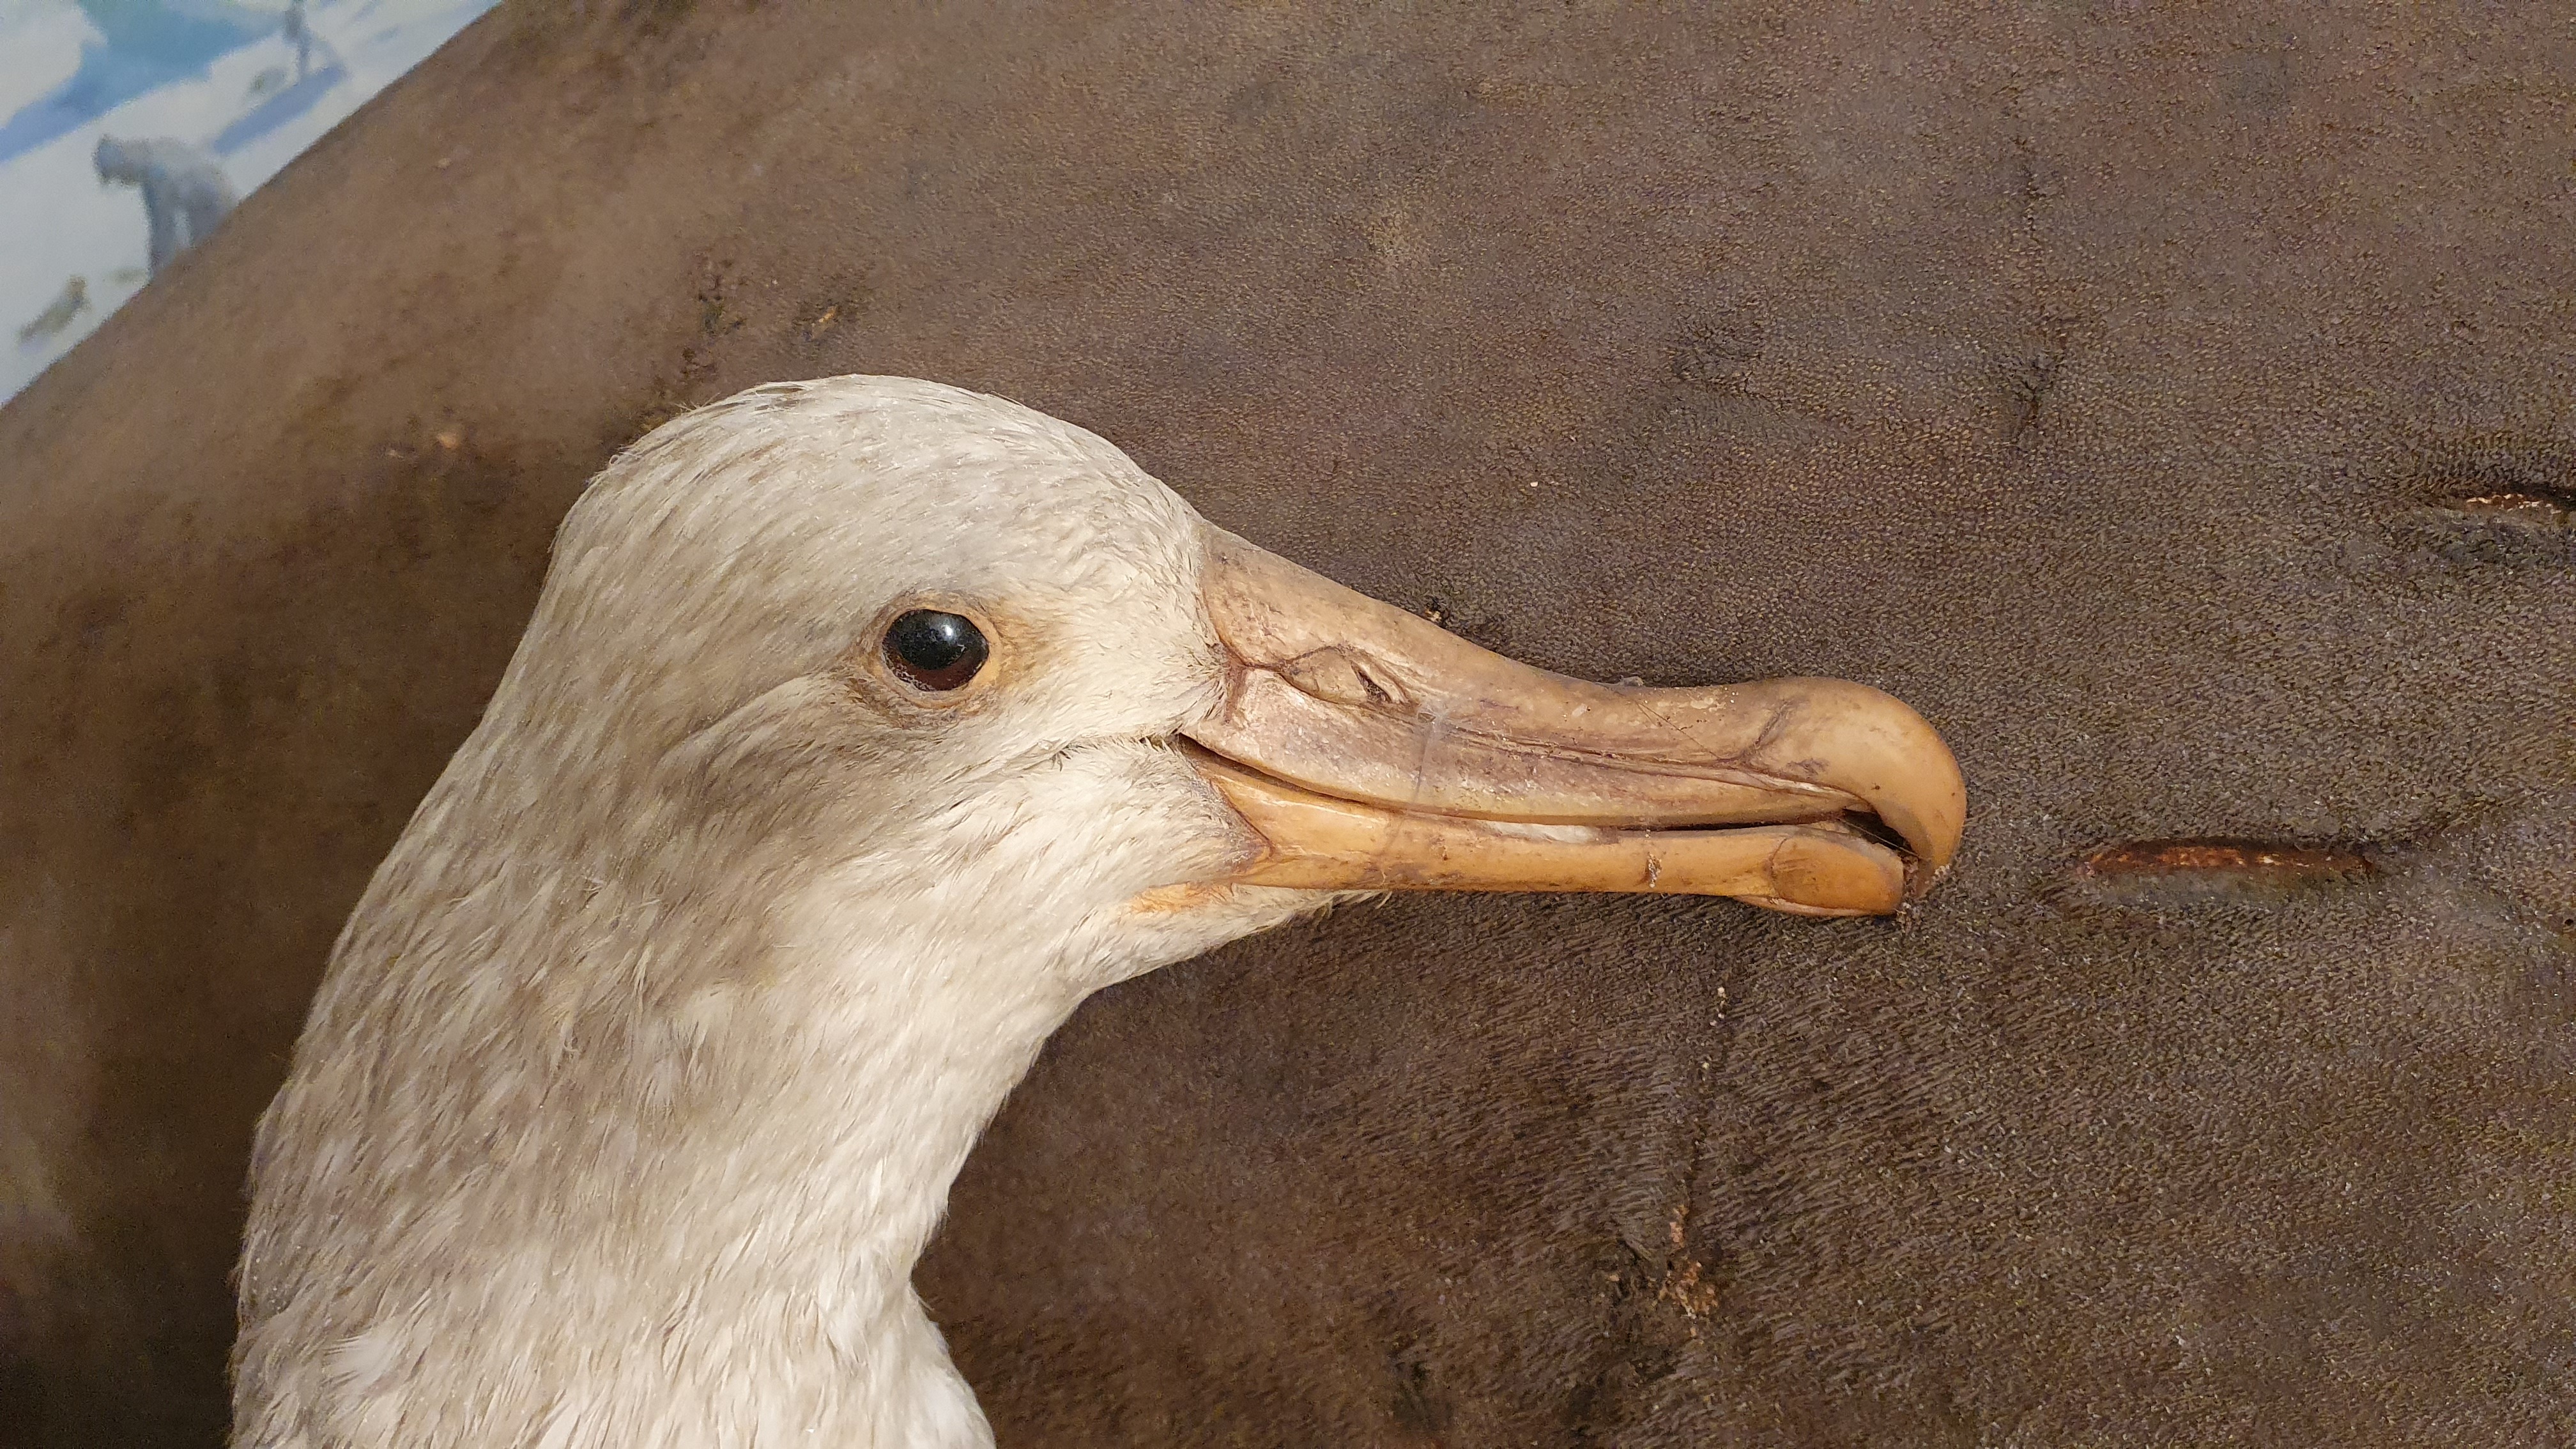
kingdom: Animalia
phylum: Chordata
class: Aves
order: Procellariiformes
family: Diomedeidae
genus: Diomedea
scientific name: Diomedea exulans
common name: Wandering albatross
